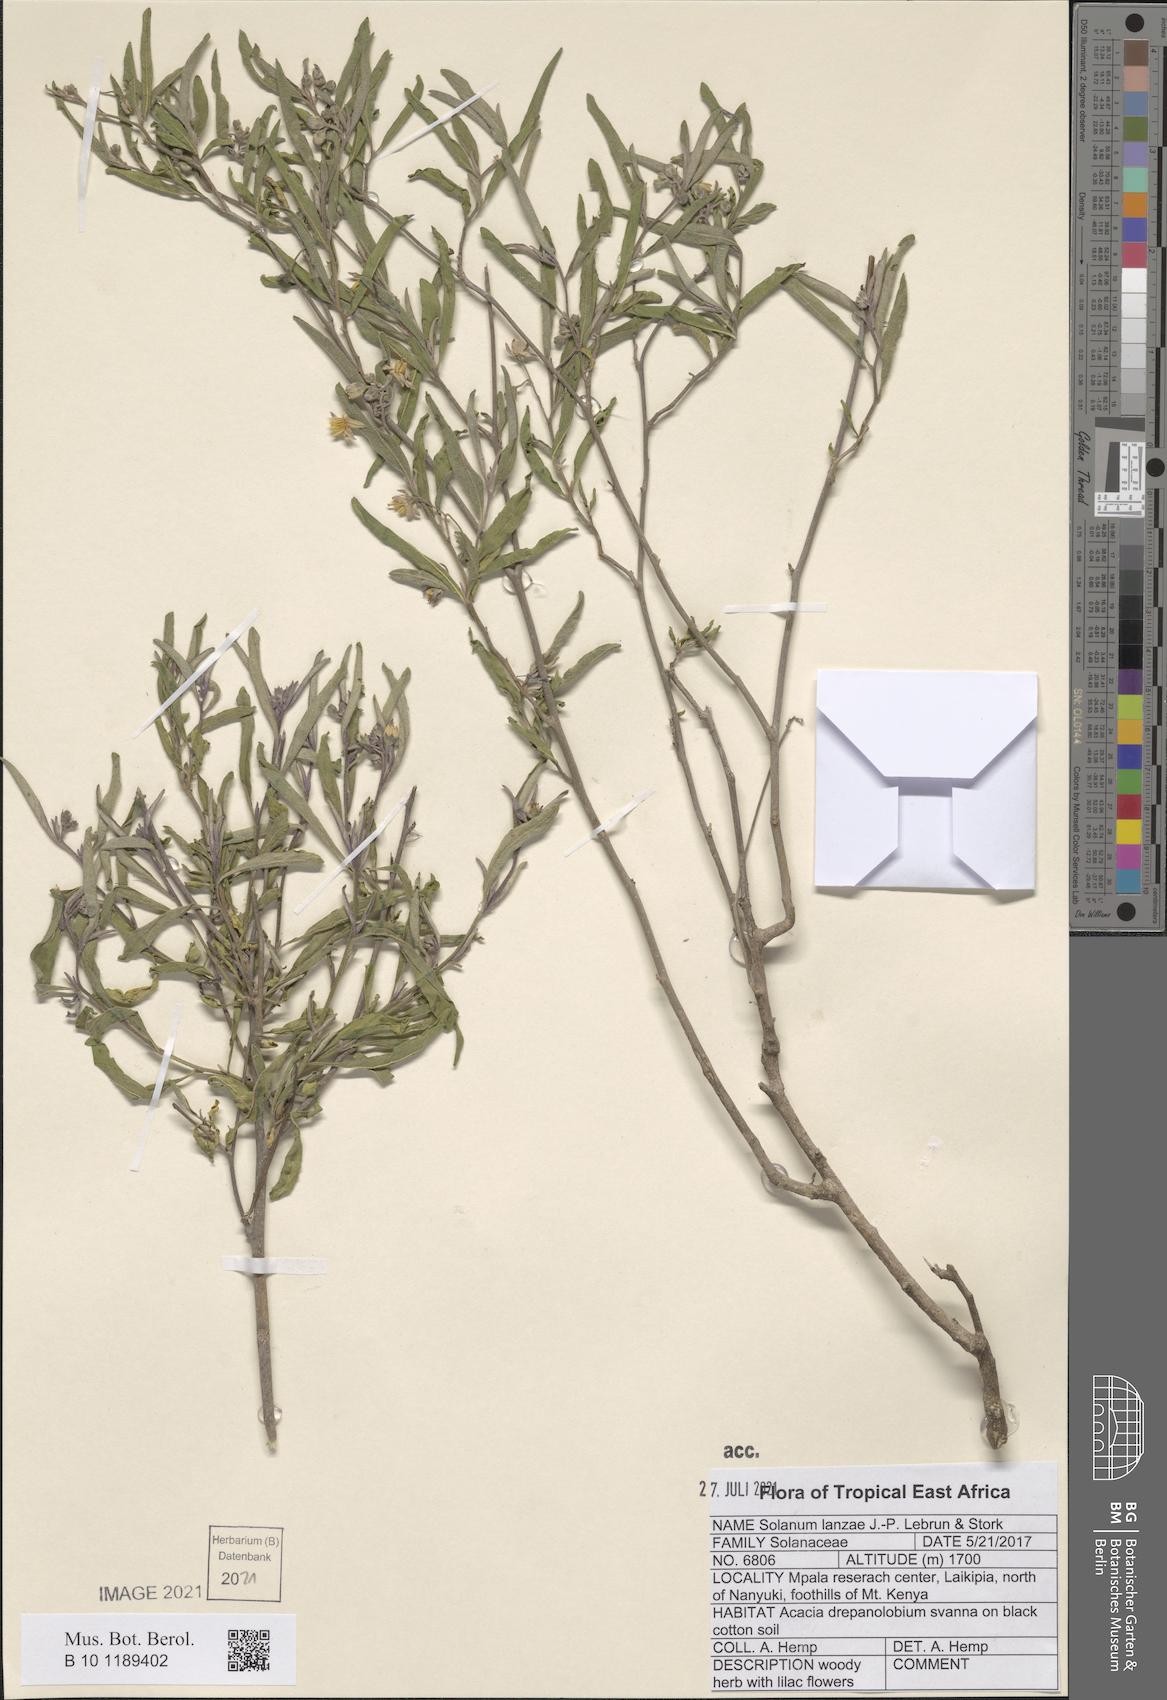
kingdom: Plantae
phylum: Tracheophyta
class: Magnoliopsida
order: Solanales
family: Solanaceae
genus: Solanum
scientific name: Solanum lanzae
